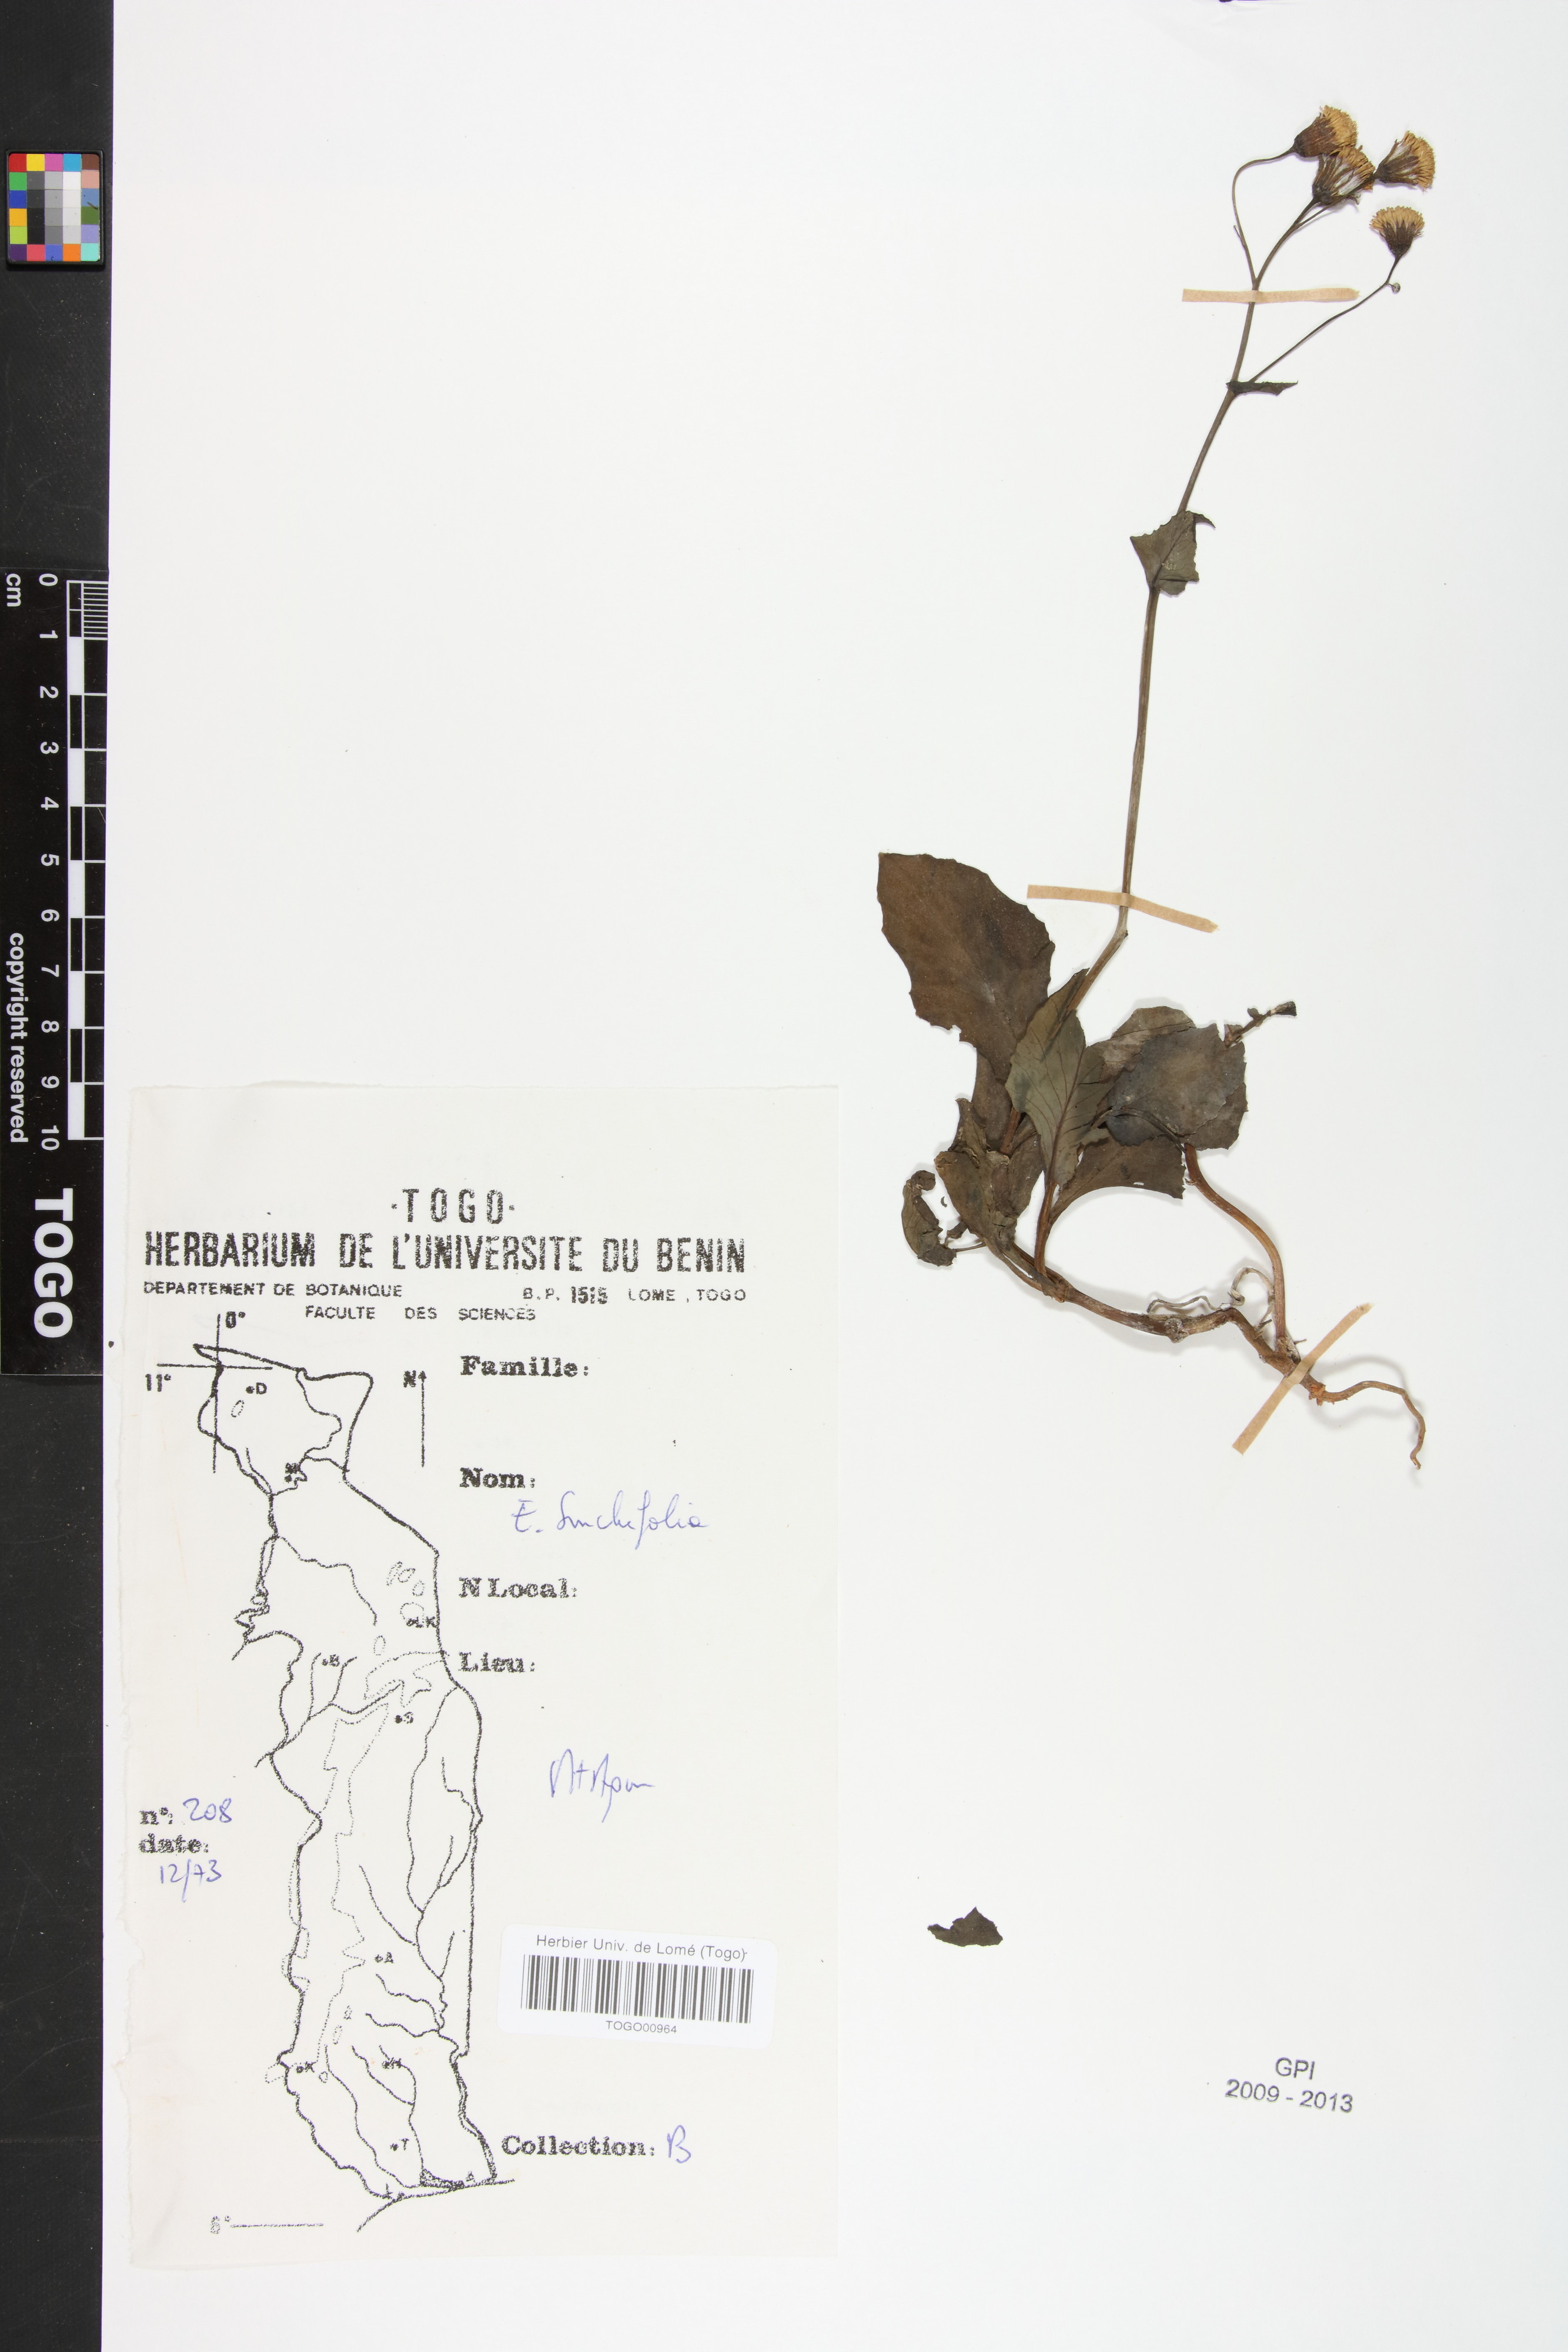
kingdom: Plantae
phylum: Tracheophyta
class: Magnoliopsida
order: Asterales
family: Asteraceae
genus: Emilia
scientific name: Emilia sonchifolia
